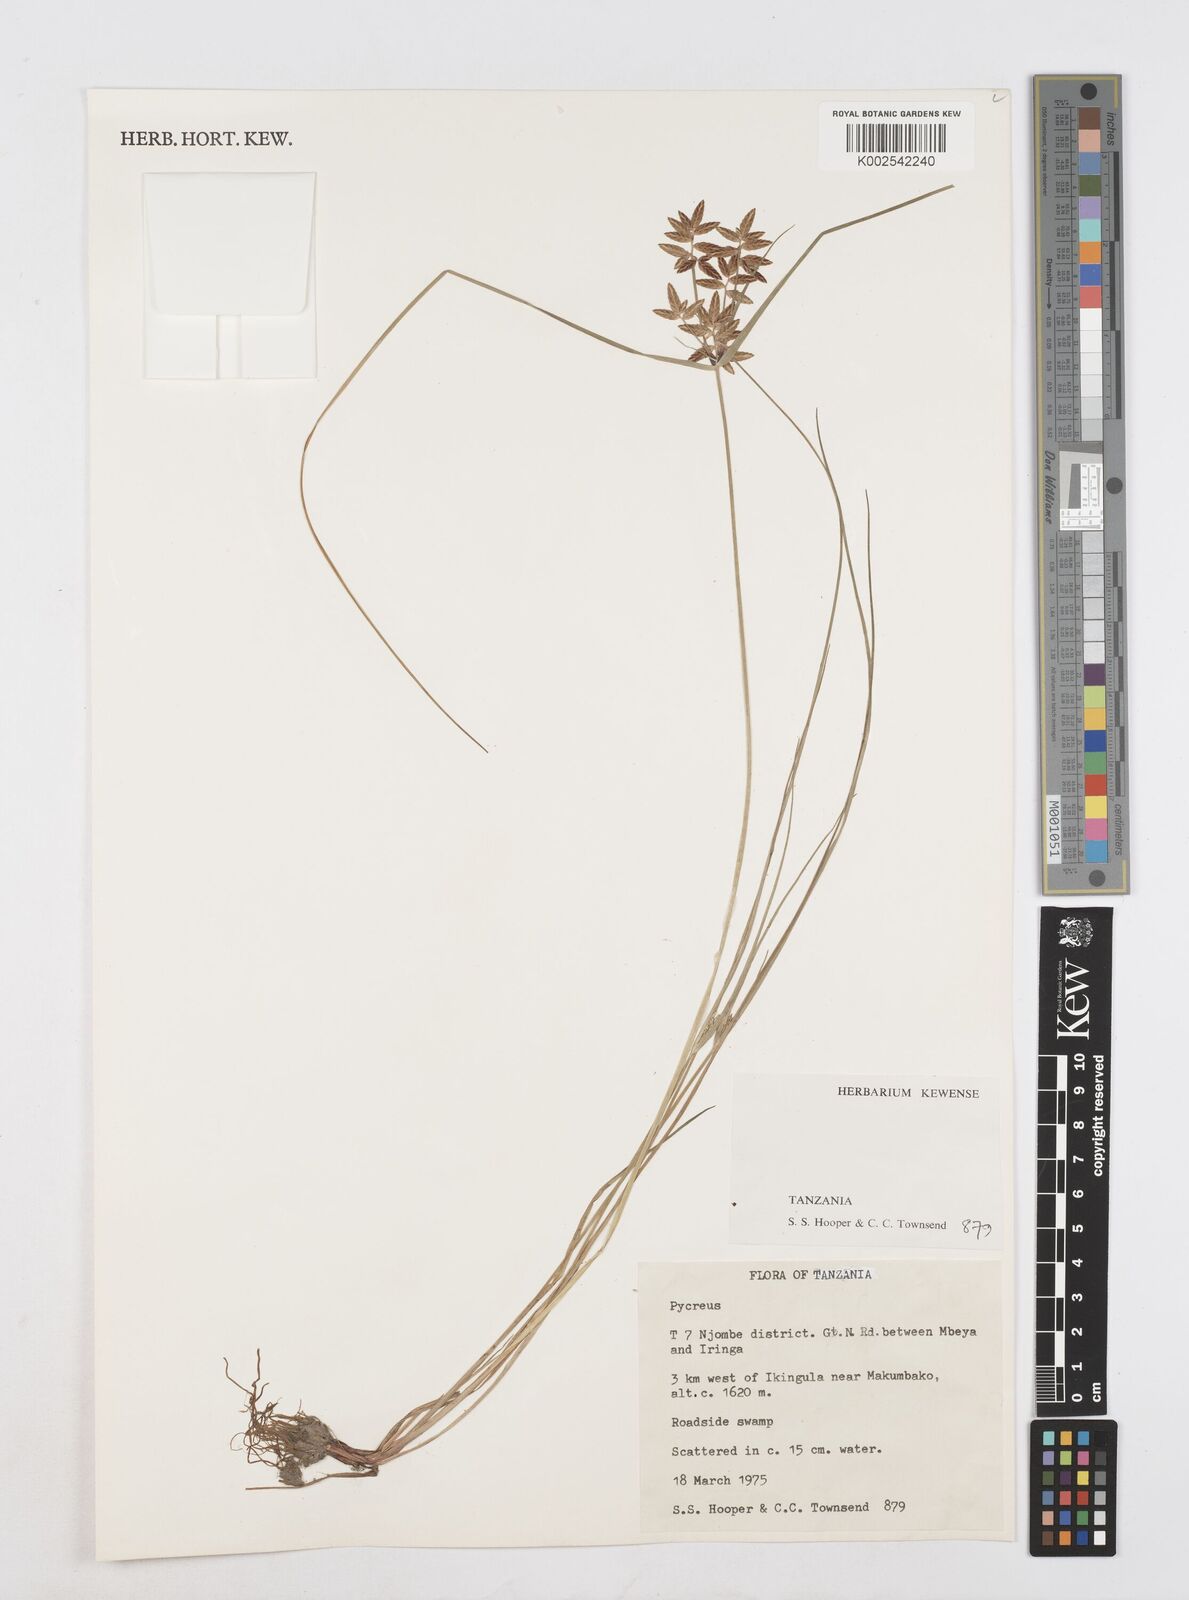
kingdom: Plantae
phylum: Tracheophyta
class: Liliopsida
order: Poales
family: Cyperaceae
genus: Cyperus
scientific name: Cyperus
